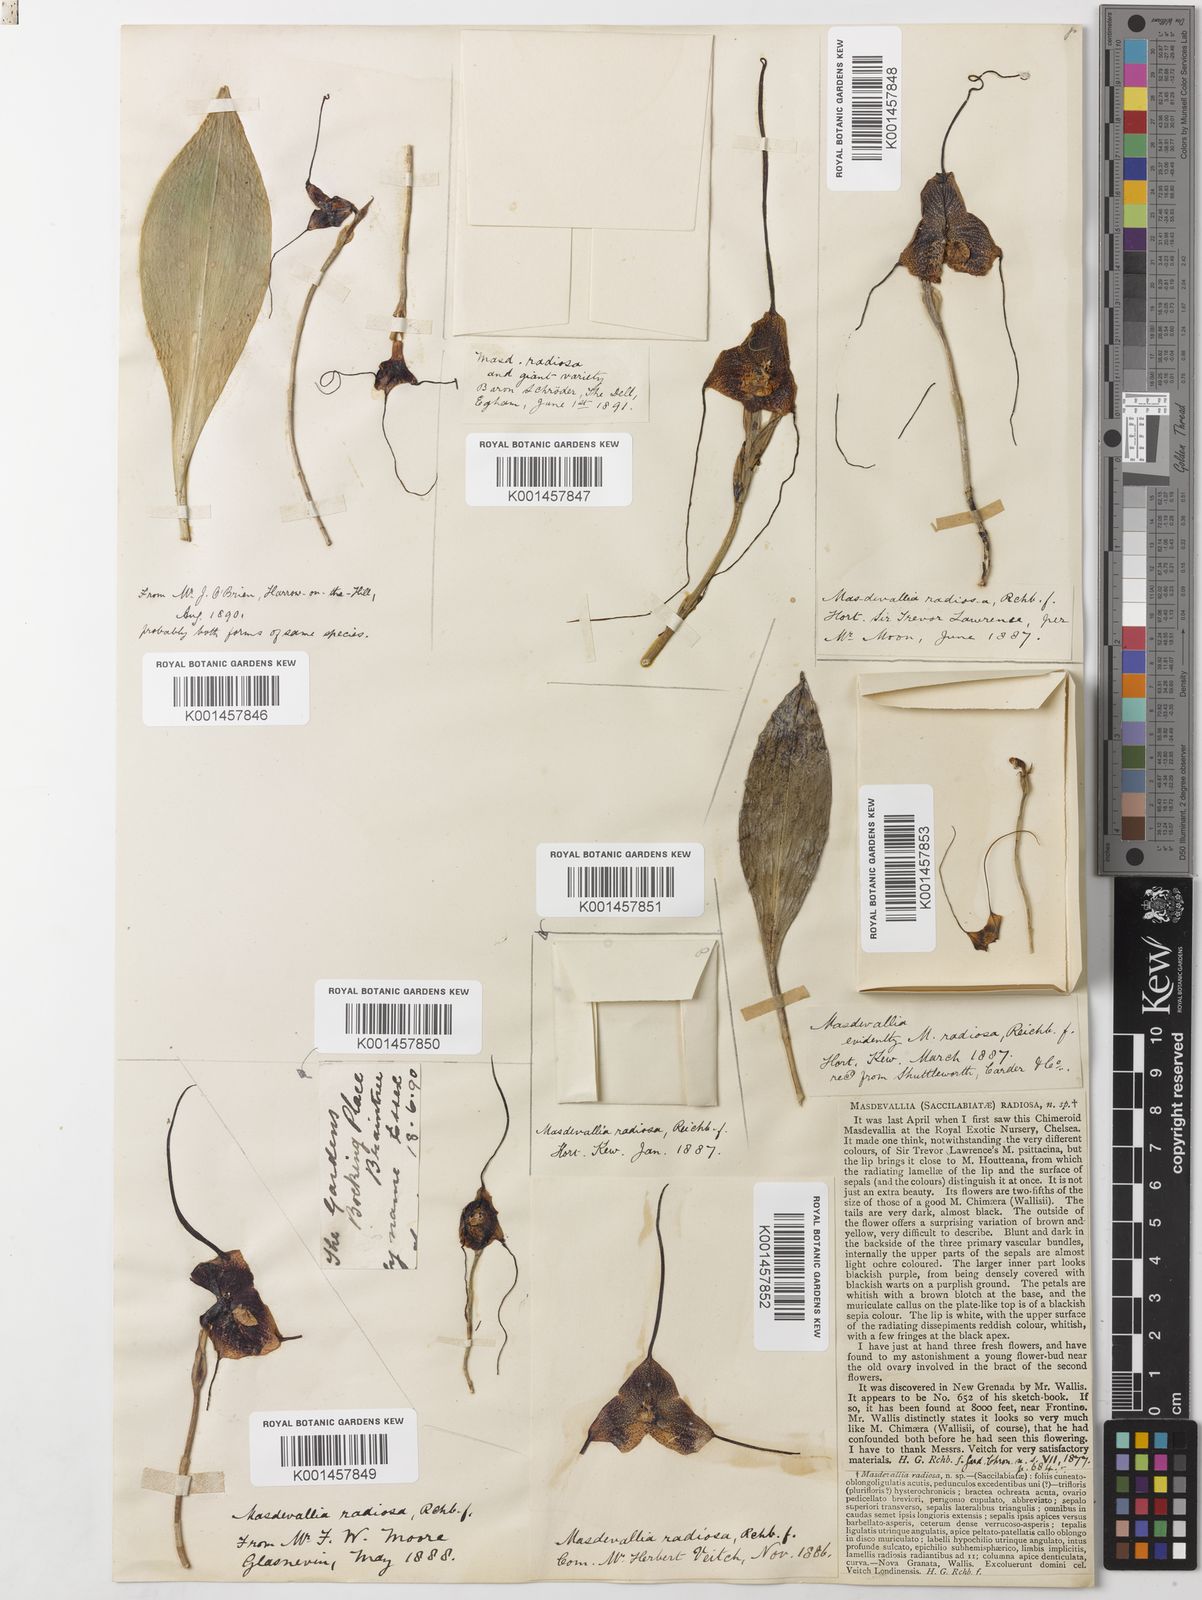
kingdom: Plantae
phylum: Tracheophyta
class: Liliopsida
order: Asparagales
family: Orchidaceae
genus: Dracula
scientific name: Dracula radiosa
